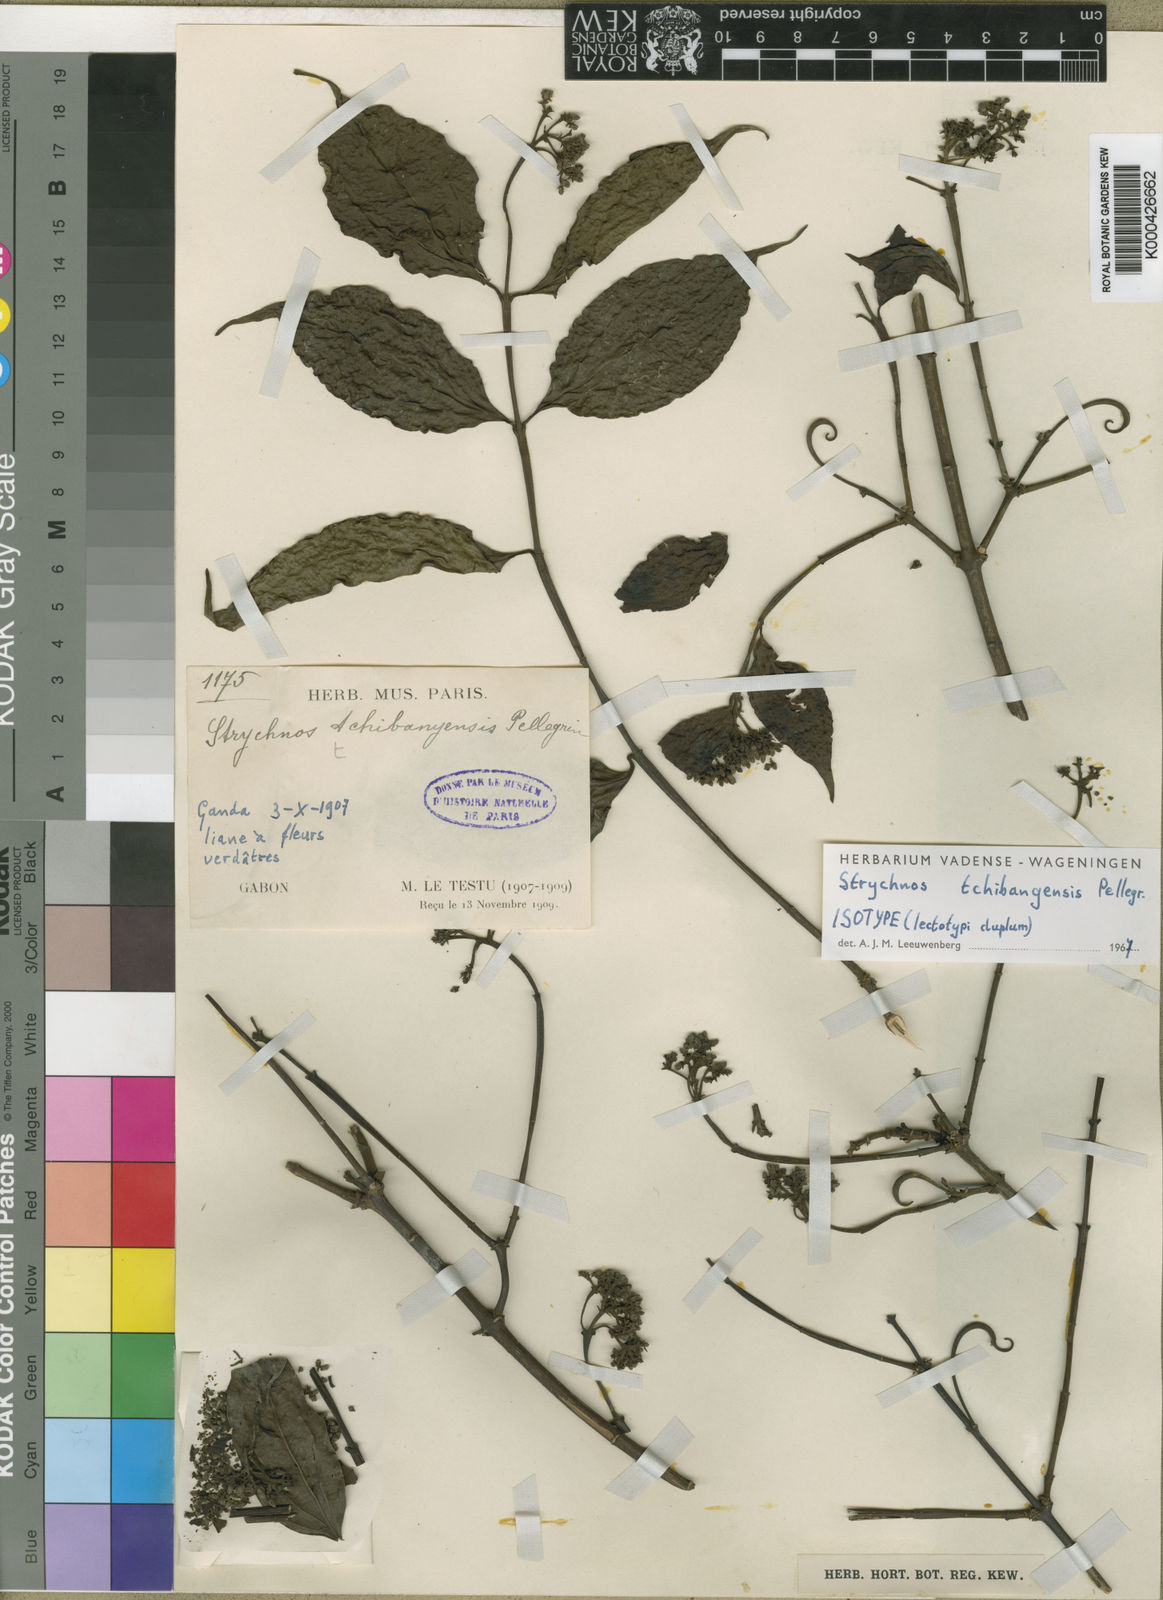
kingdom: Plantae
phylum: Tracheophyta
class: Magnoliopsida
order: Gentianales
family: Loganiaceae
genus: Strychnos
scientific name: Strychnos tchibangensis
